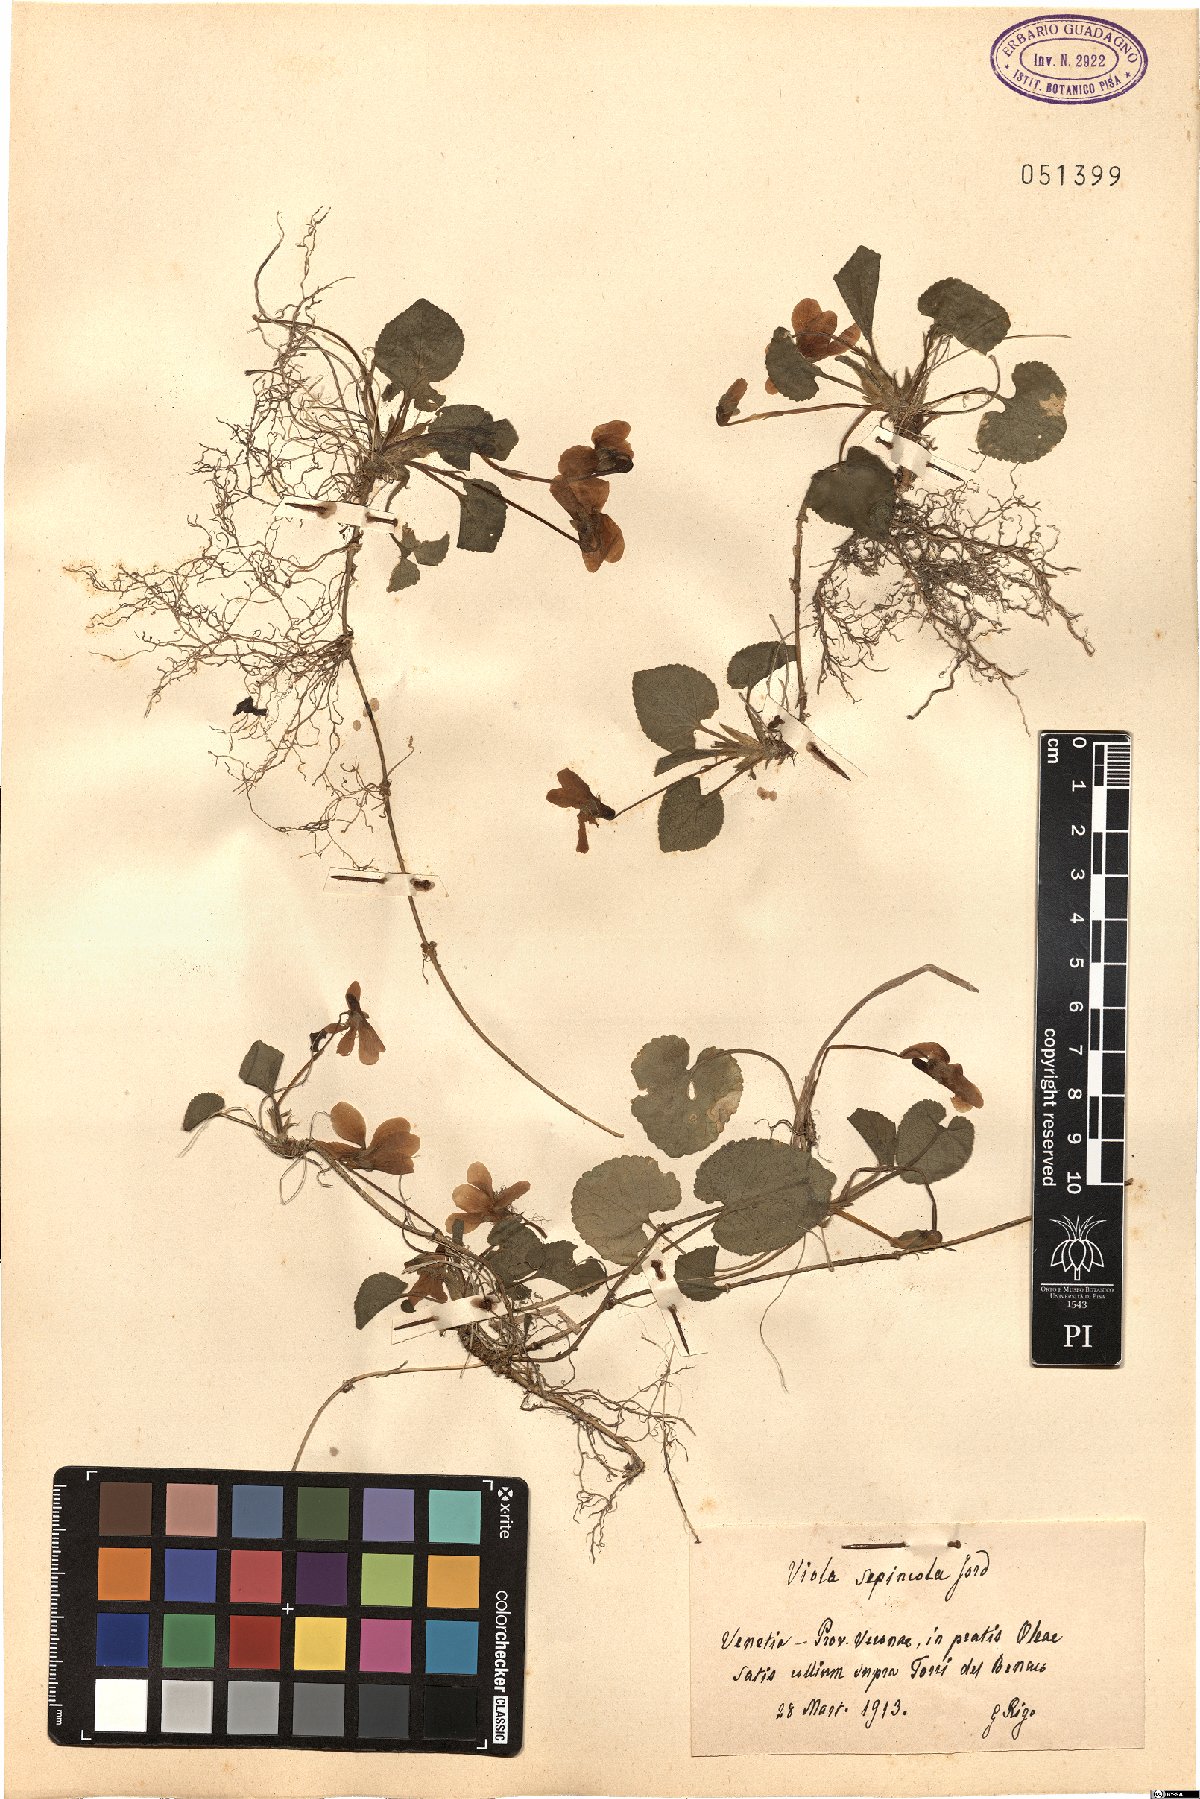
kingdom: Plantae
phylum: Tracheophyta
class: Magnoliopsida
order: Malpighiales
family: Violaceae
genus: Viola
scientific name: Viola suavis
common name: Russian violet
